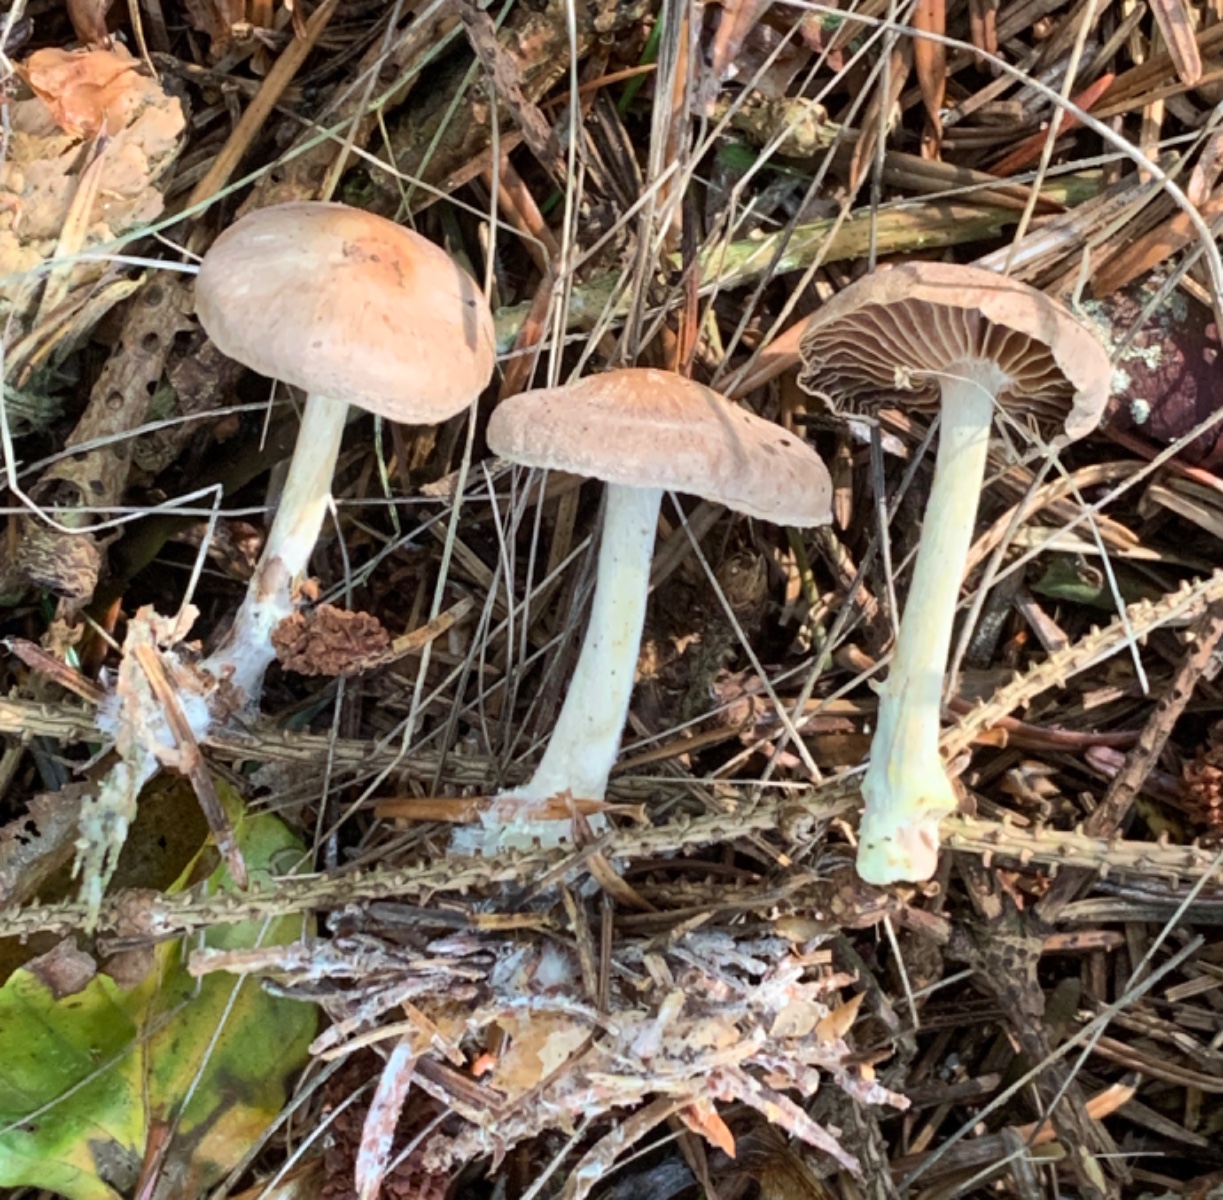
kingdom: Fungi
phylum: Basidiomycota
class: Agaricomycetes
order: Agaricales
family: Omphalotaceae
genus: Collybiopsis
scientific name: Collybiopsis peronata
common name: bestøvlet fladhat
